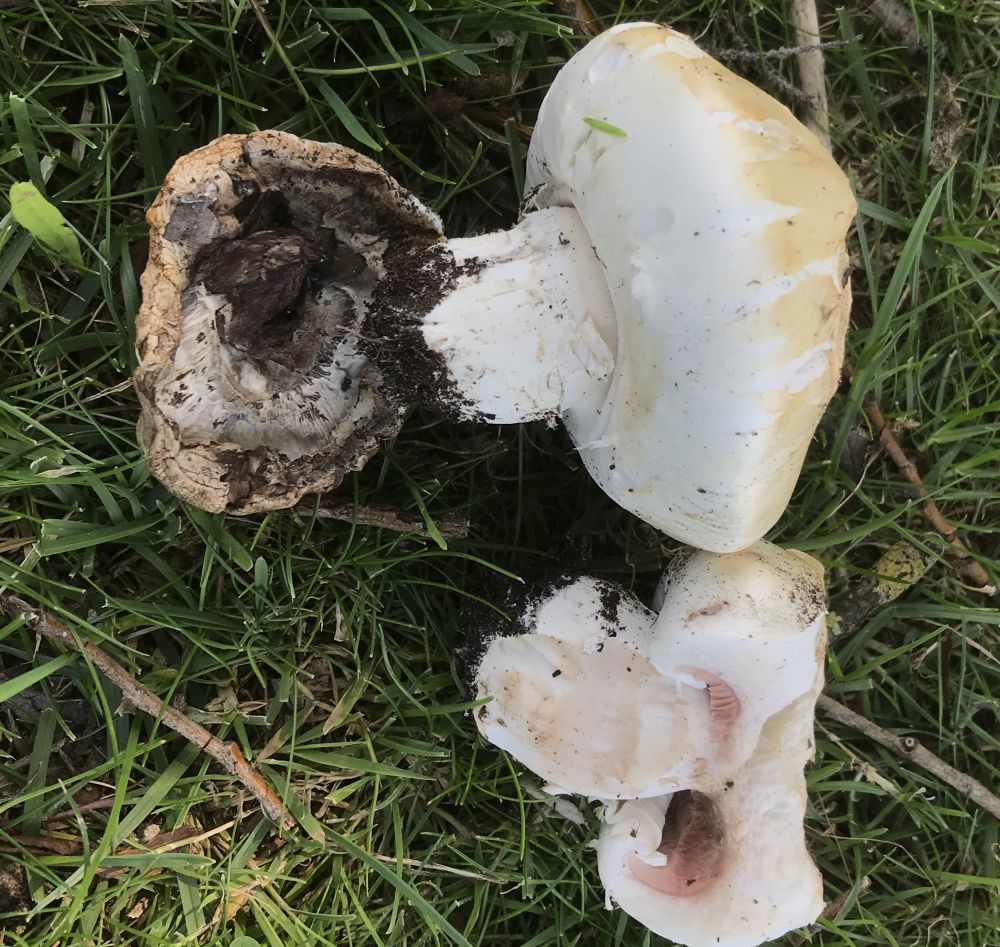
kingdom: Fungi
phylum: Basidiomycota
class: Agaricomycetes
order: Agaricales
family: Agaricaceae
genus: Agaricus
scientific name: Agaricus
